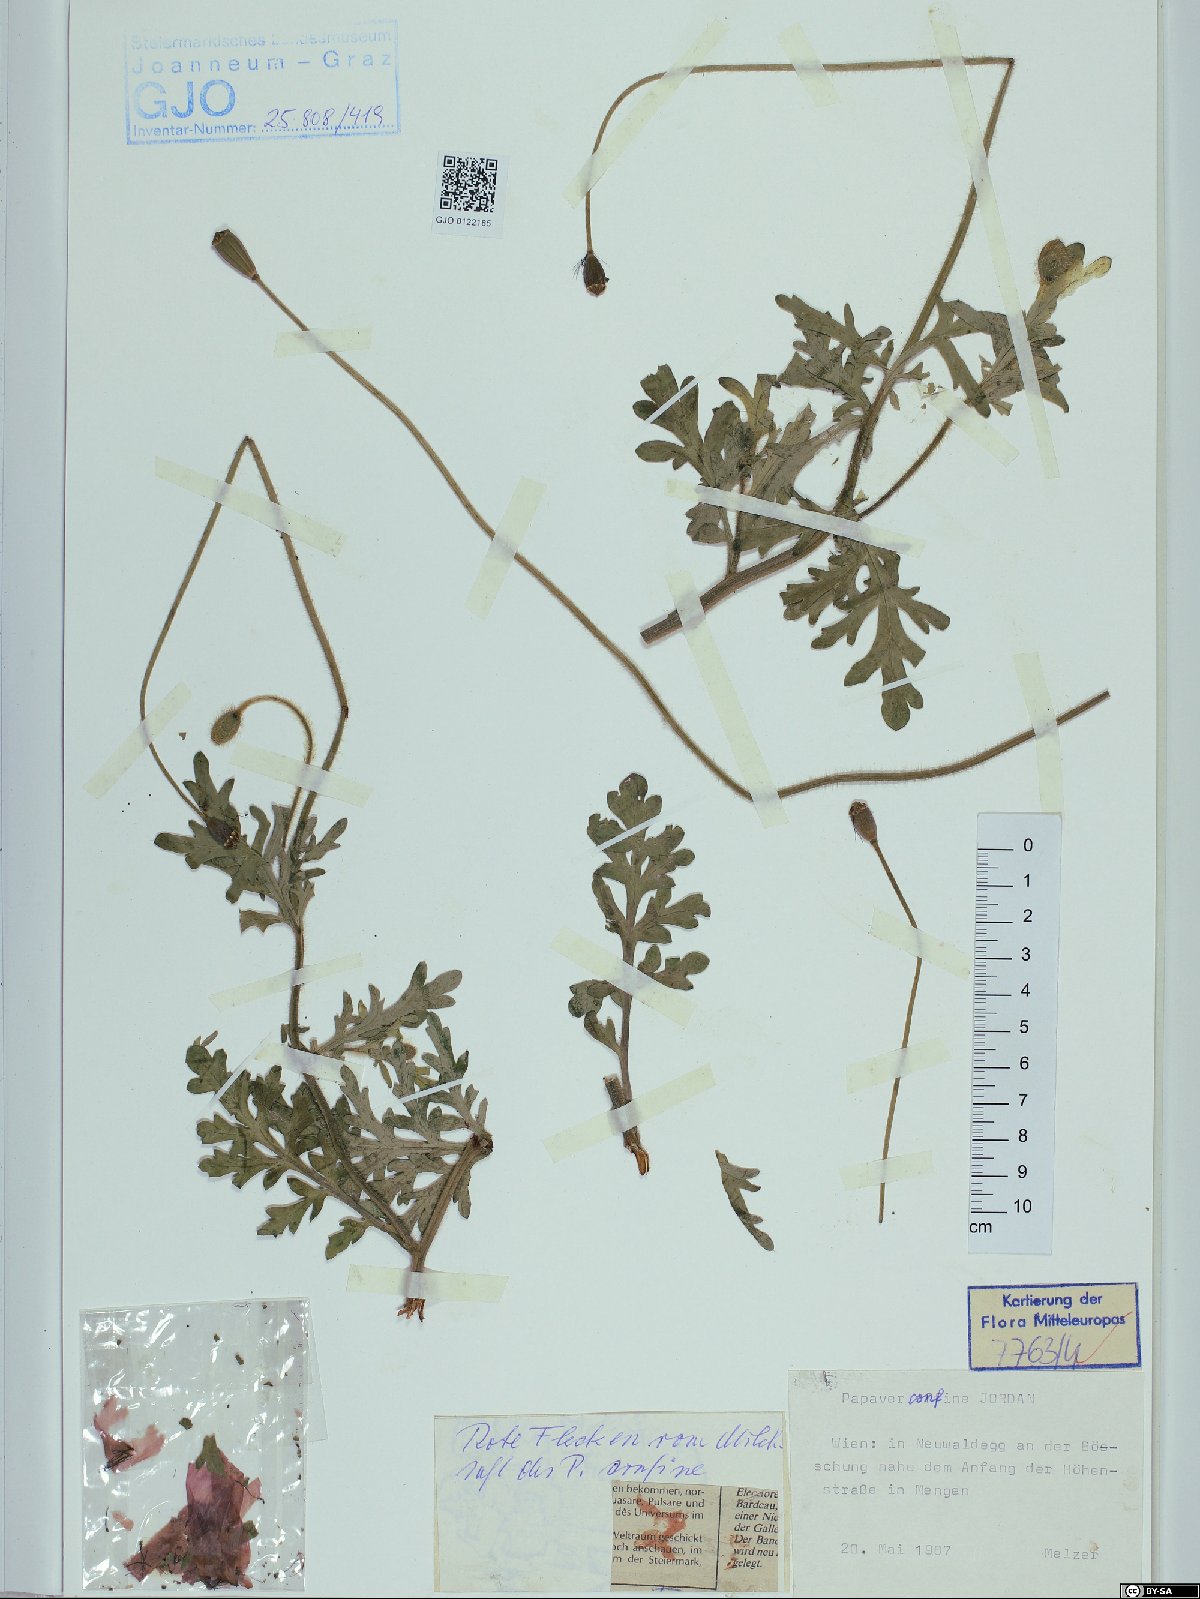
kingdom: Plantae
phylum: Tracheophyta
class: Magnoliopsida
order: Ranunculales
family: Papaveraceae
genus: Papaver
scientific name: Papaver confine
